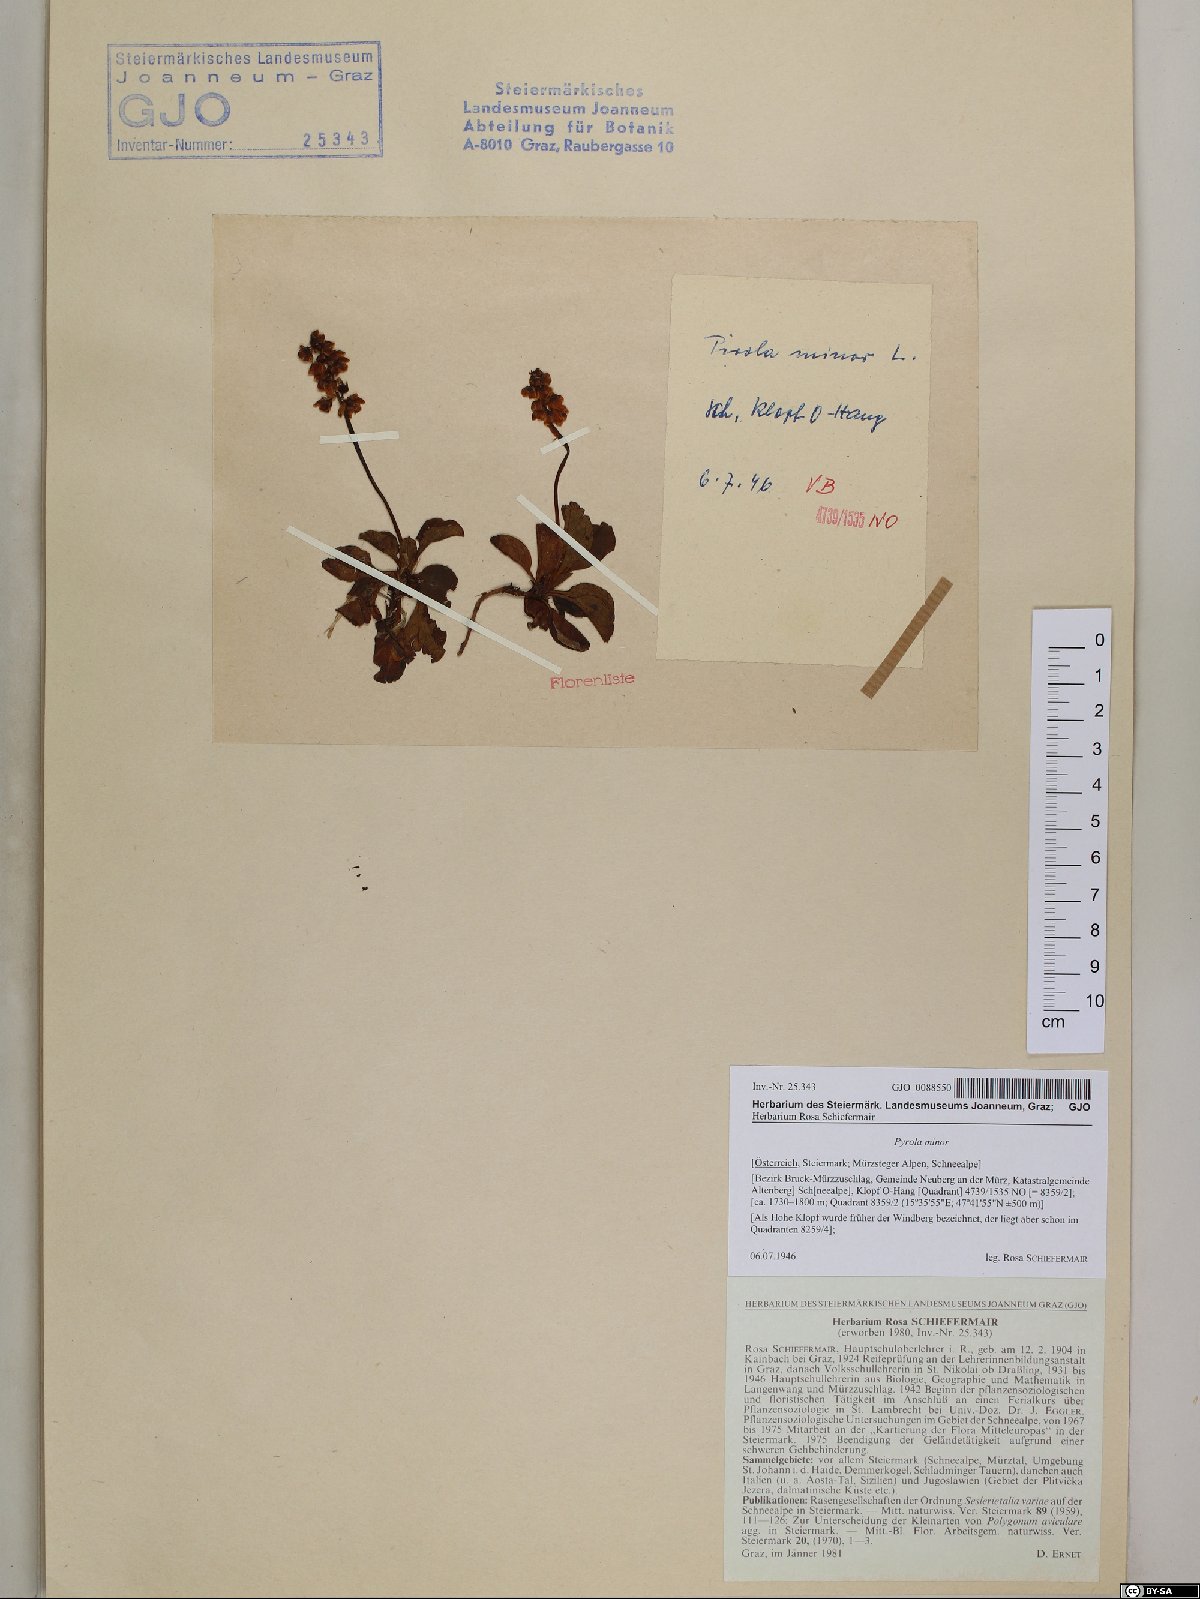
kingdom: Plantae
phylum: Tracheophyta
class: Magnoliopsida
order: Ericales
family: Ericaceae
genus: Pyrola
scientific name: Pyrola minor
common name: Common wintergreen
